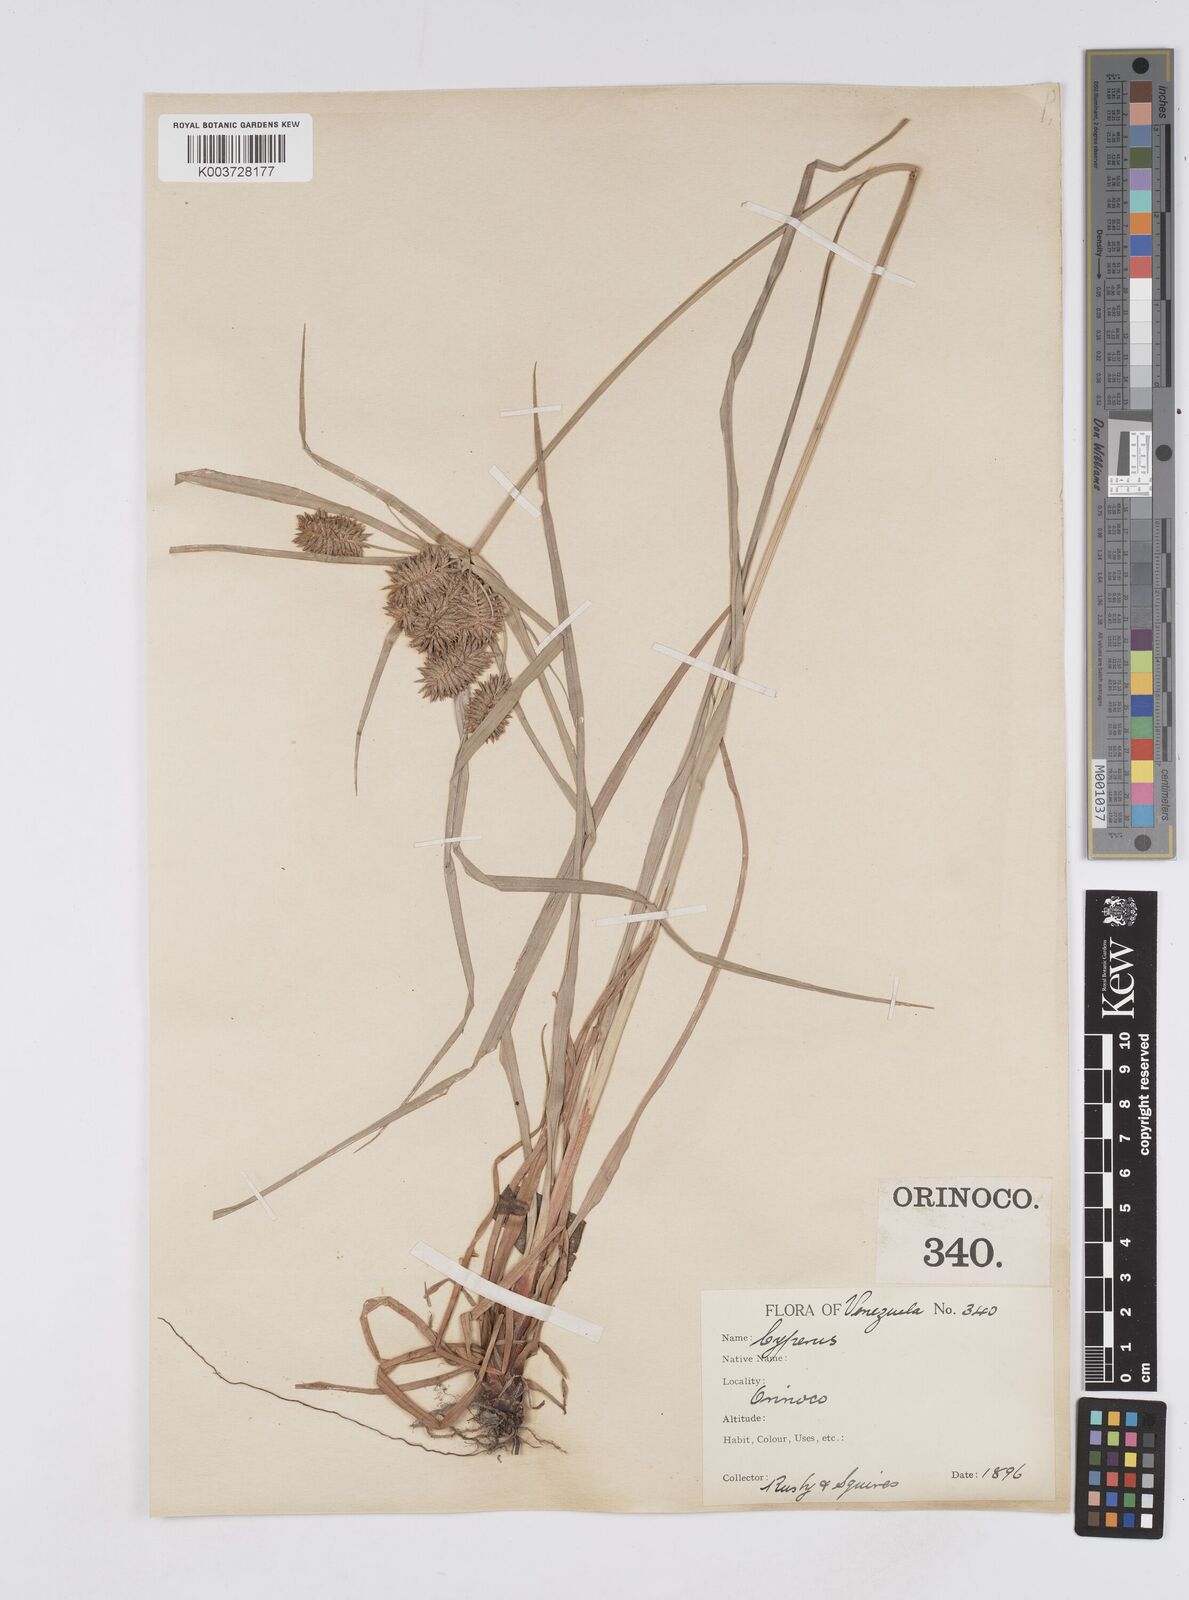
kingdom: Plantae
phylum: Tracheophyta
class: Liliopsida
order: Poales
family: Cyperaceae
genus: Cyperus
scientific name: Cyperus ligularis
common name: Swamp flat sedge
